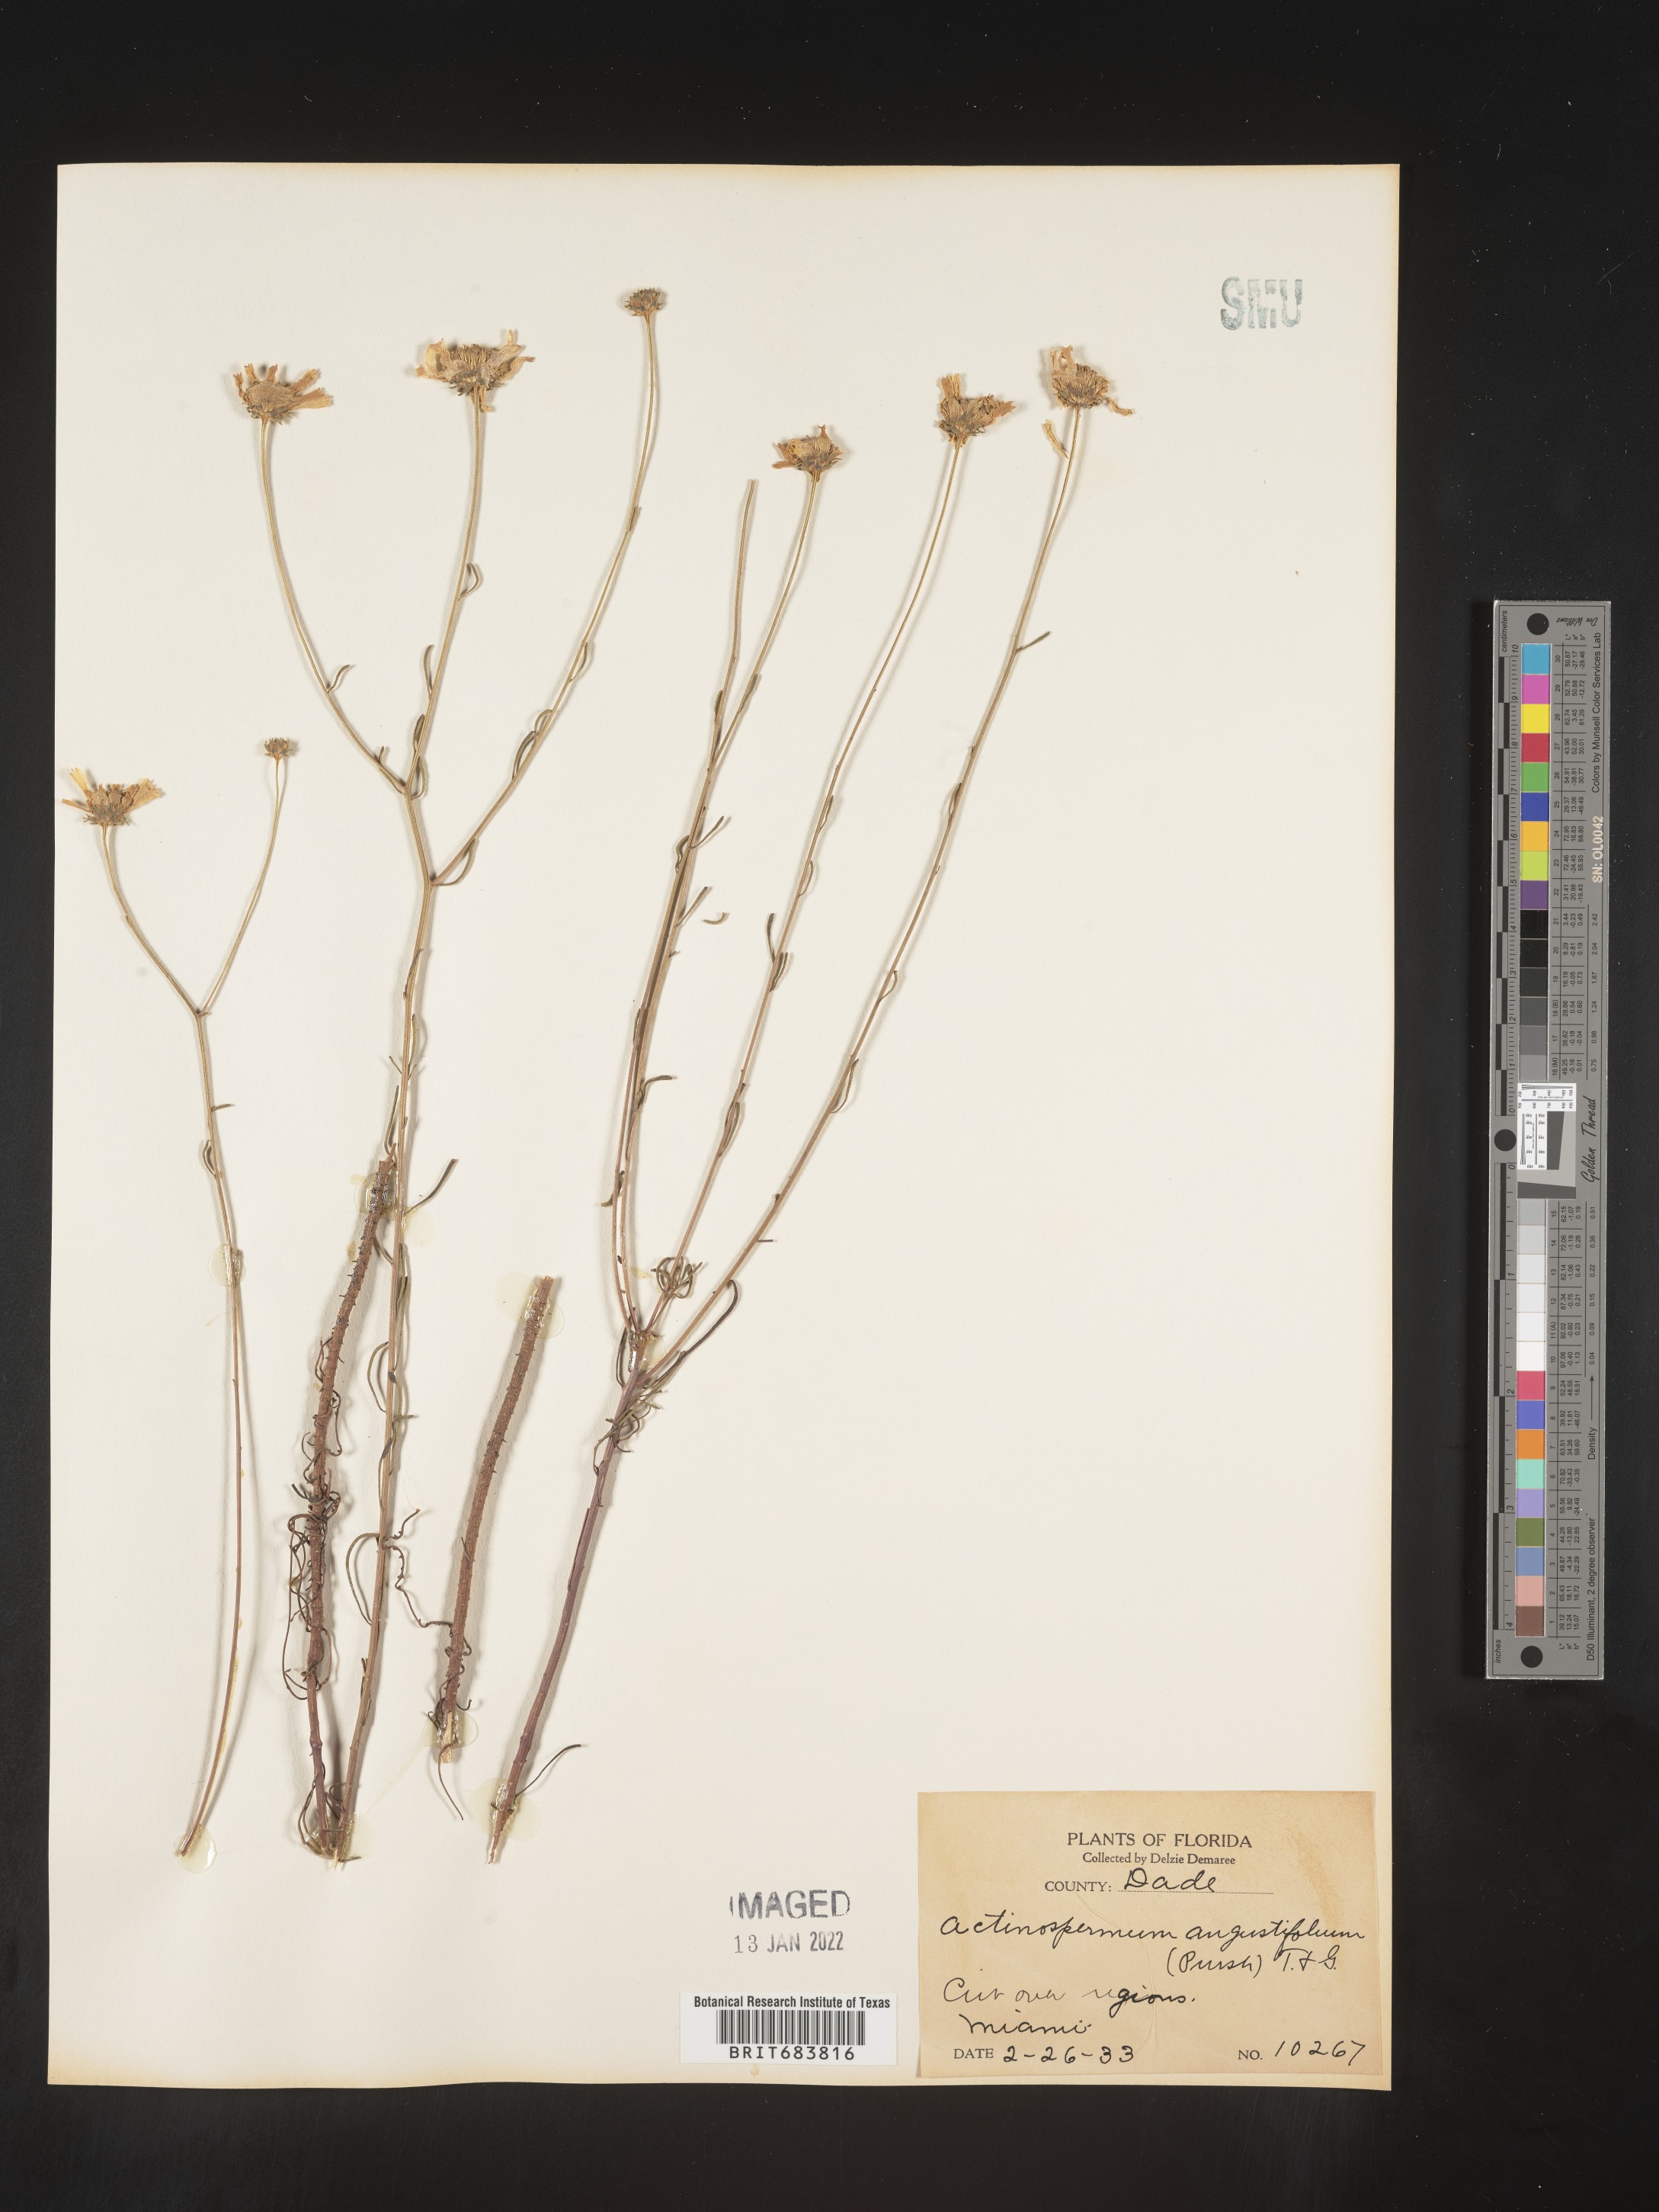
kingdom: Plantae
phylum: Tracheophyta
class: Magnoliopsida
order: Asterales
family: Asteraceae
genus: Balduina
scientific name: Balduina angustifolia
